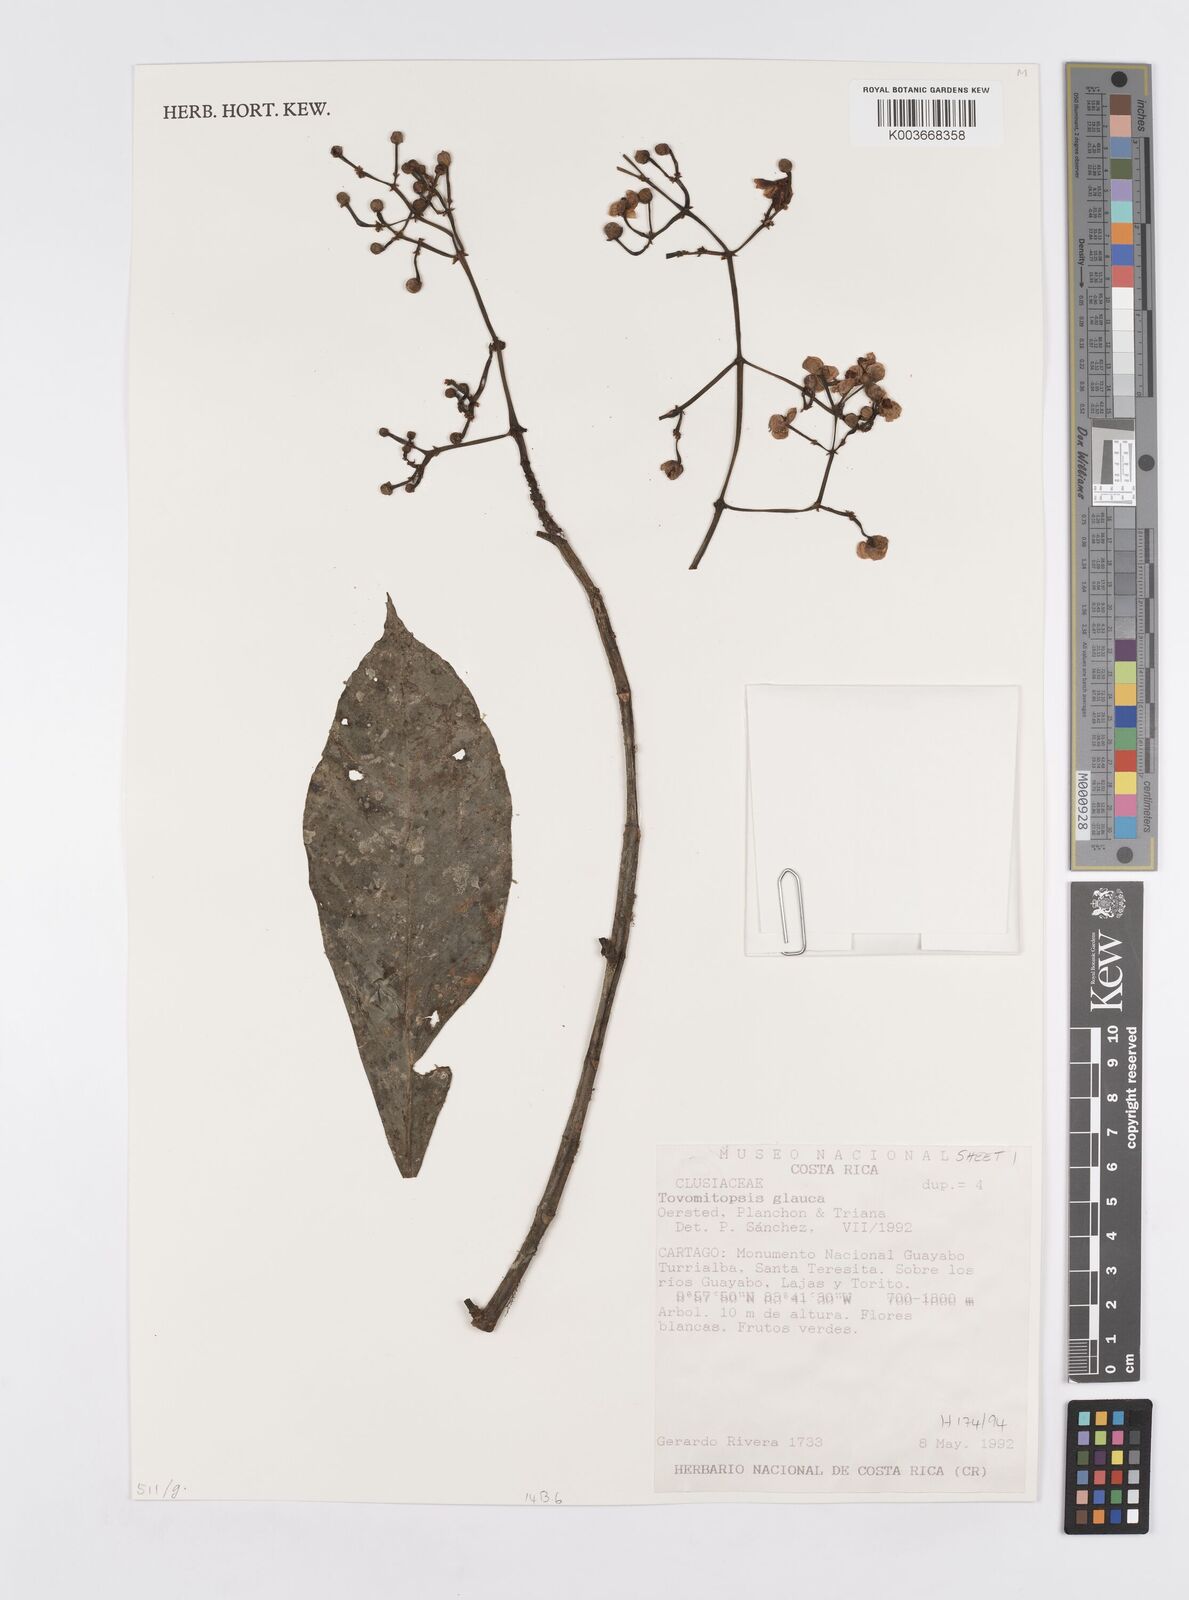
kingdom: Plantae
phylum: Tracheophyta
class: Magnoliopsida
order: Malpighiales
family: Clusiaceae
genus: Chrysochlamys
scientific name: Chrysochlamys glauca
